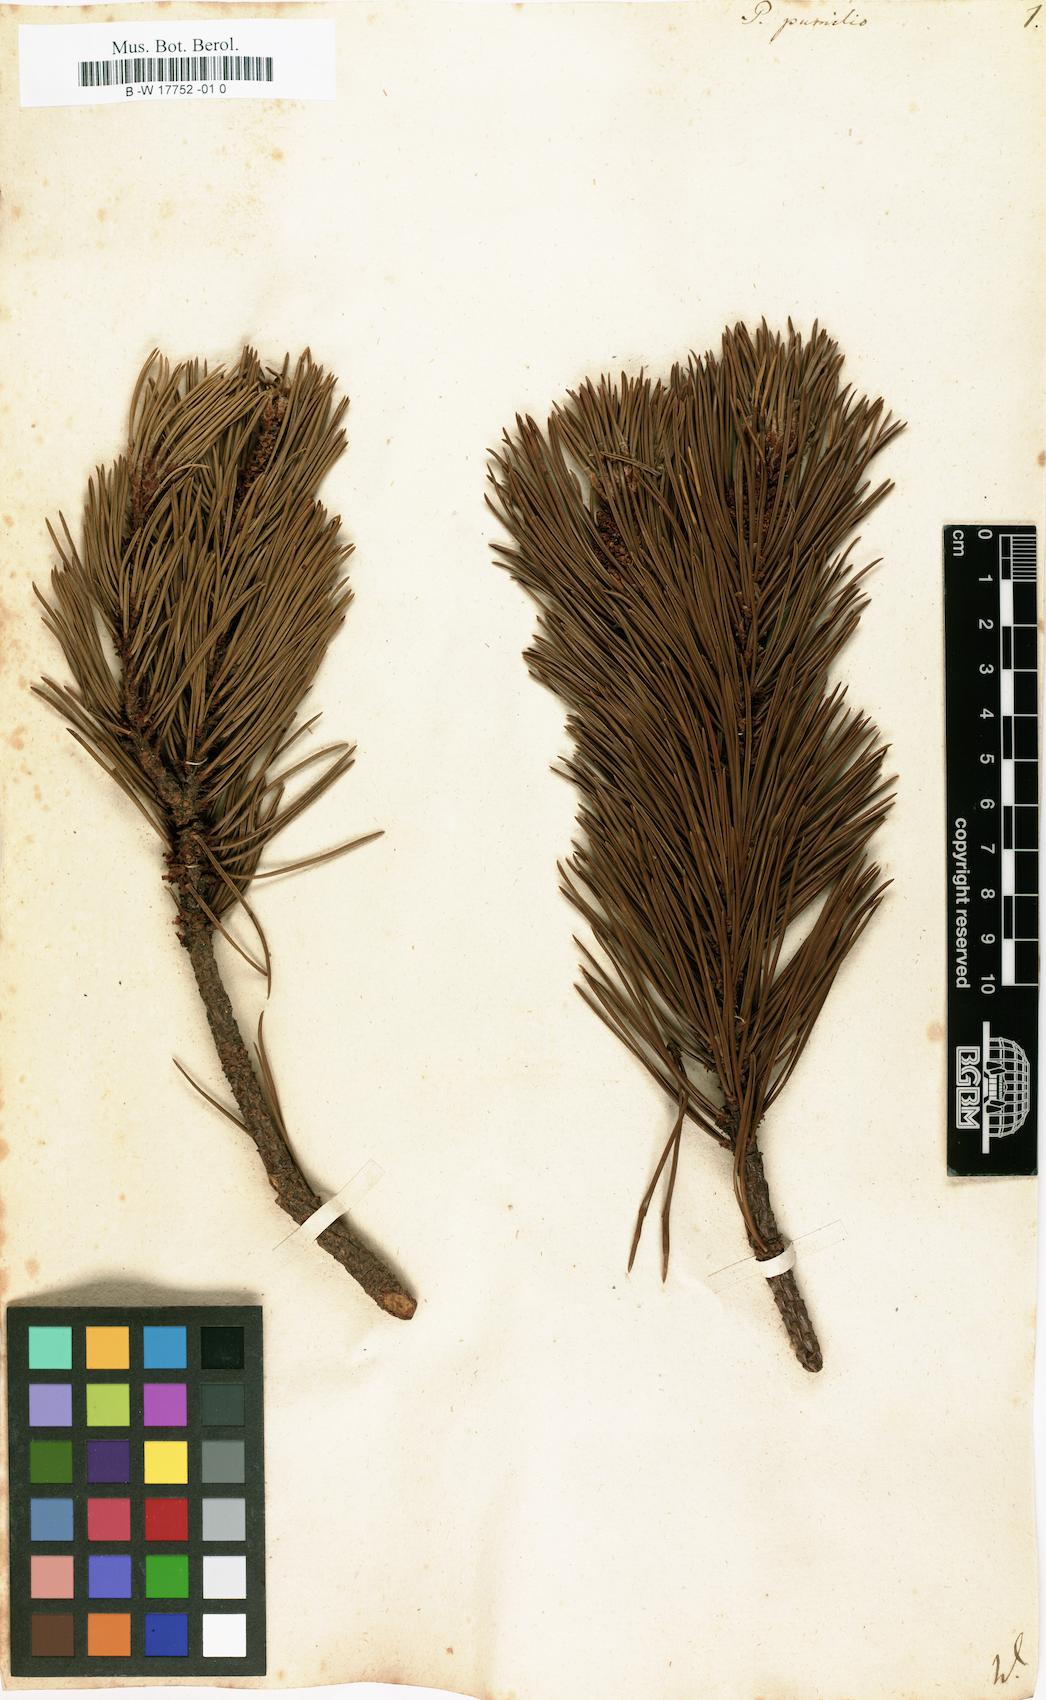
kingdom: Plantae
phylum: Tracheophyta
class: Pinopsida
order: Pinales
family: Pinaceae
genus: Pinus
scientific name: Pinus mugo
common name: Mugo pine
